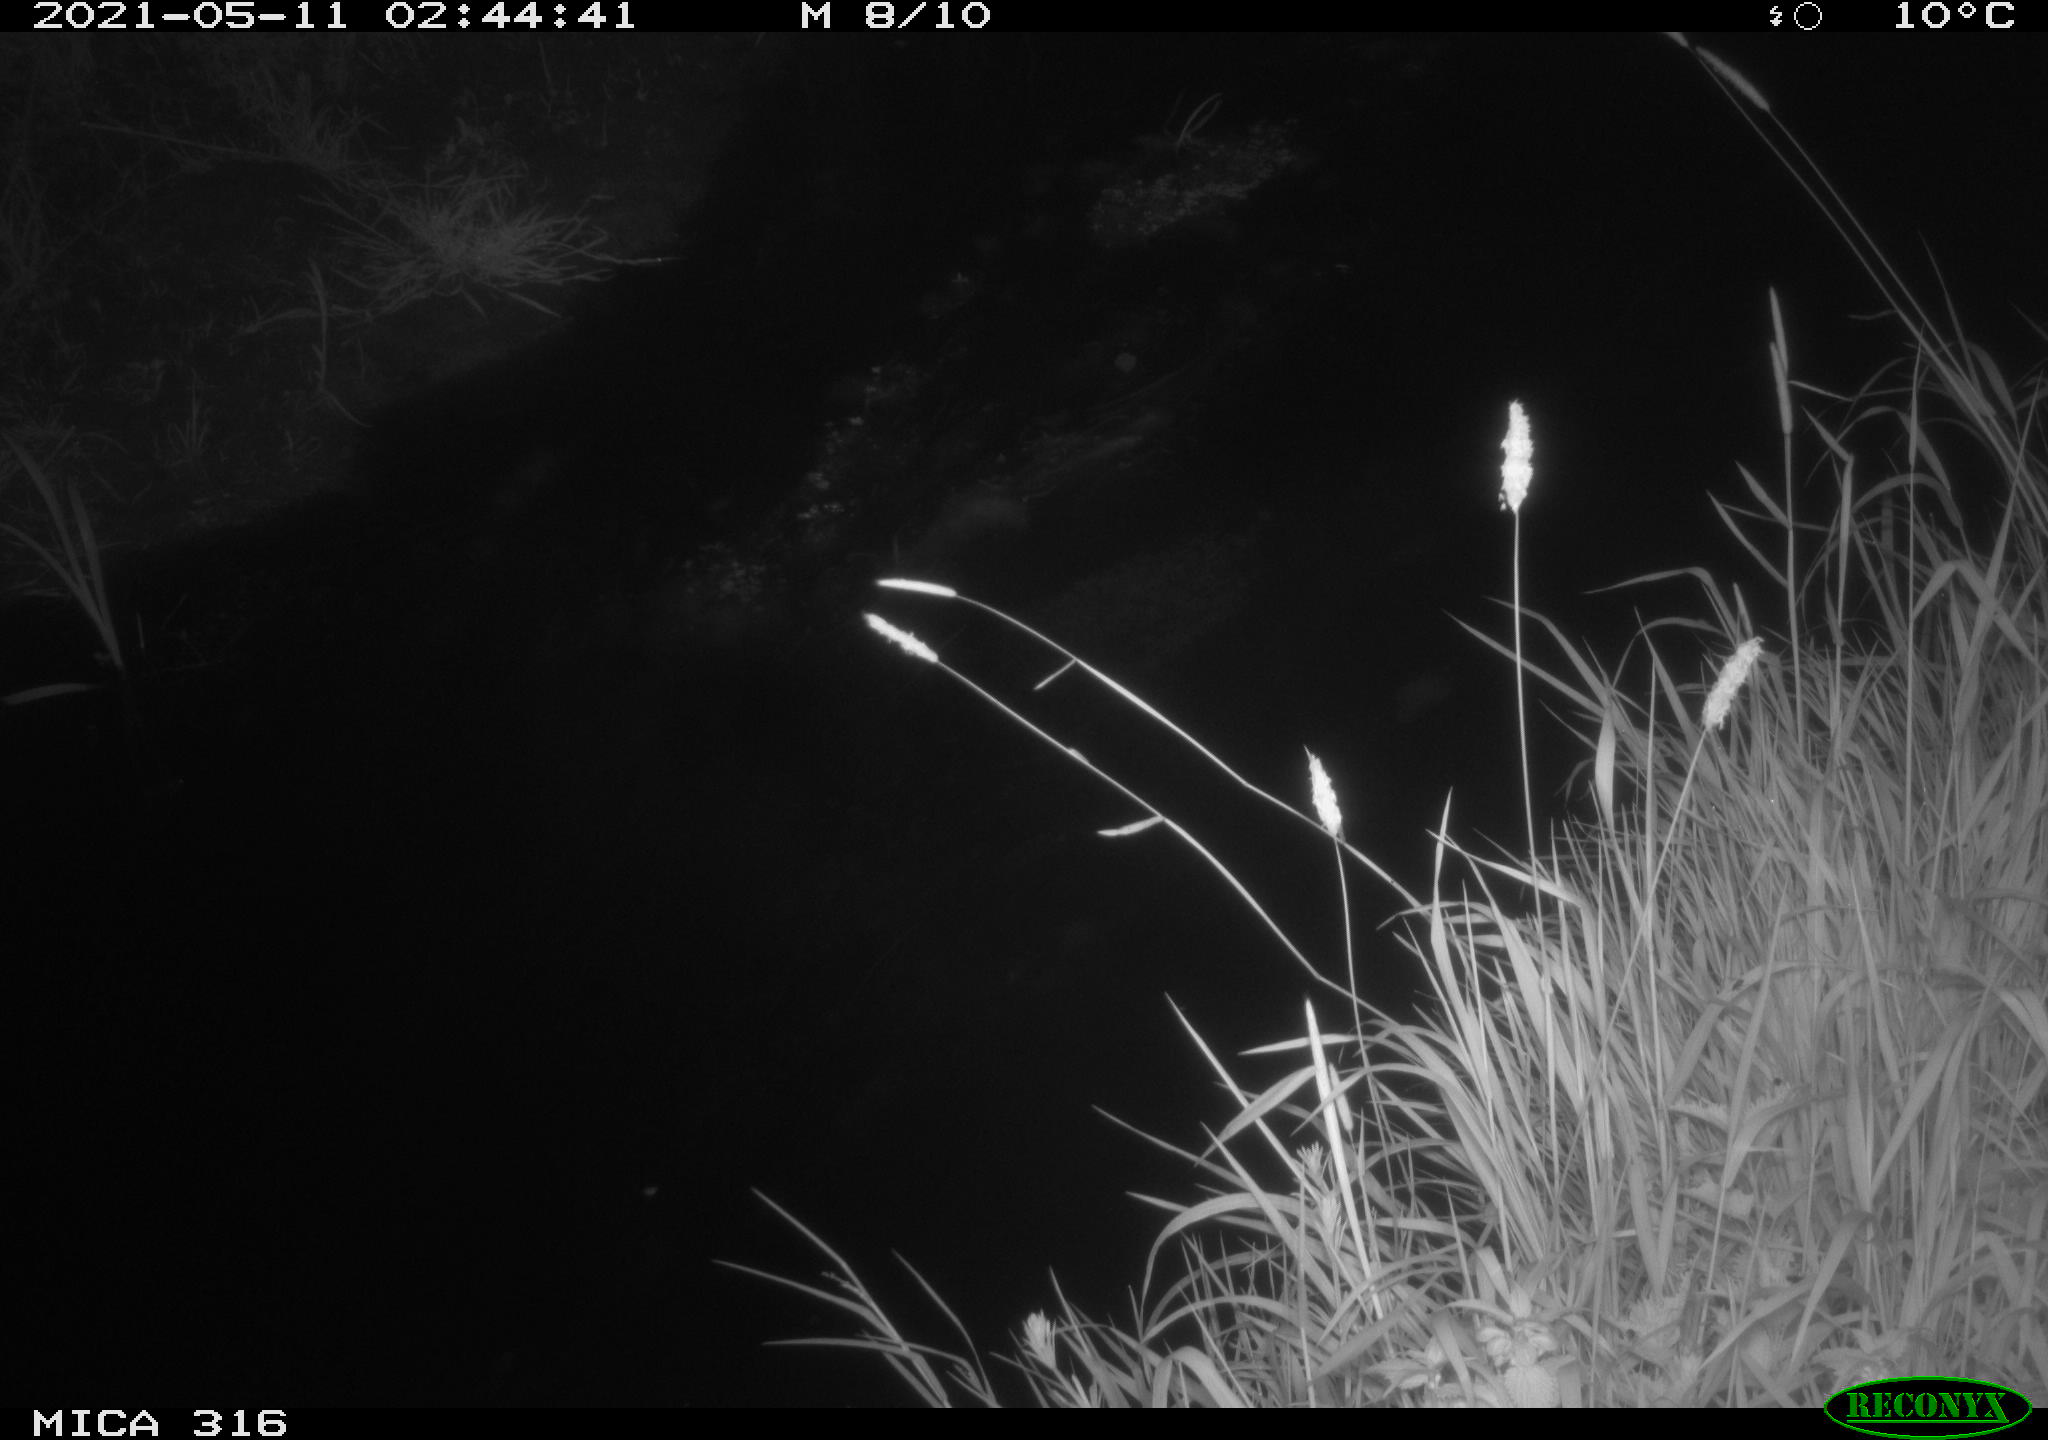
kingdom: Animalia
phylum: Chordata
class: Aves
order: Anseriformes
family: Anatidae
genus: Anas
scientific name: Anas platyrhynchos
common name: Mallard
